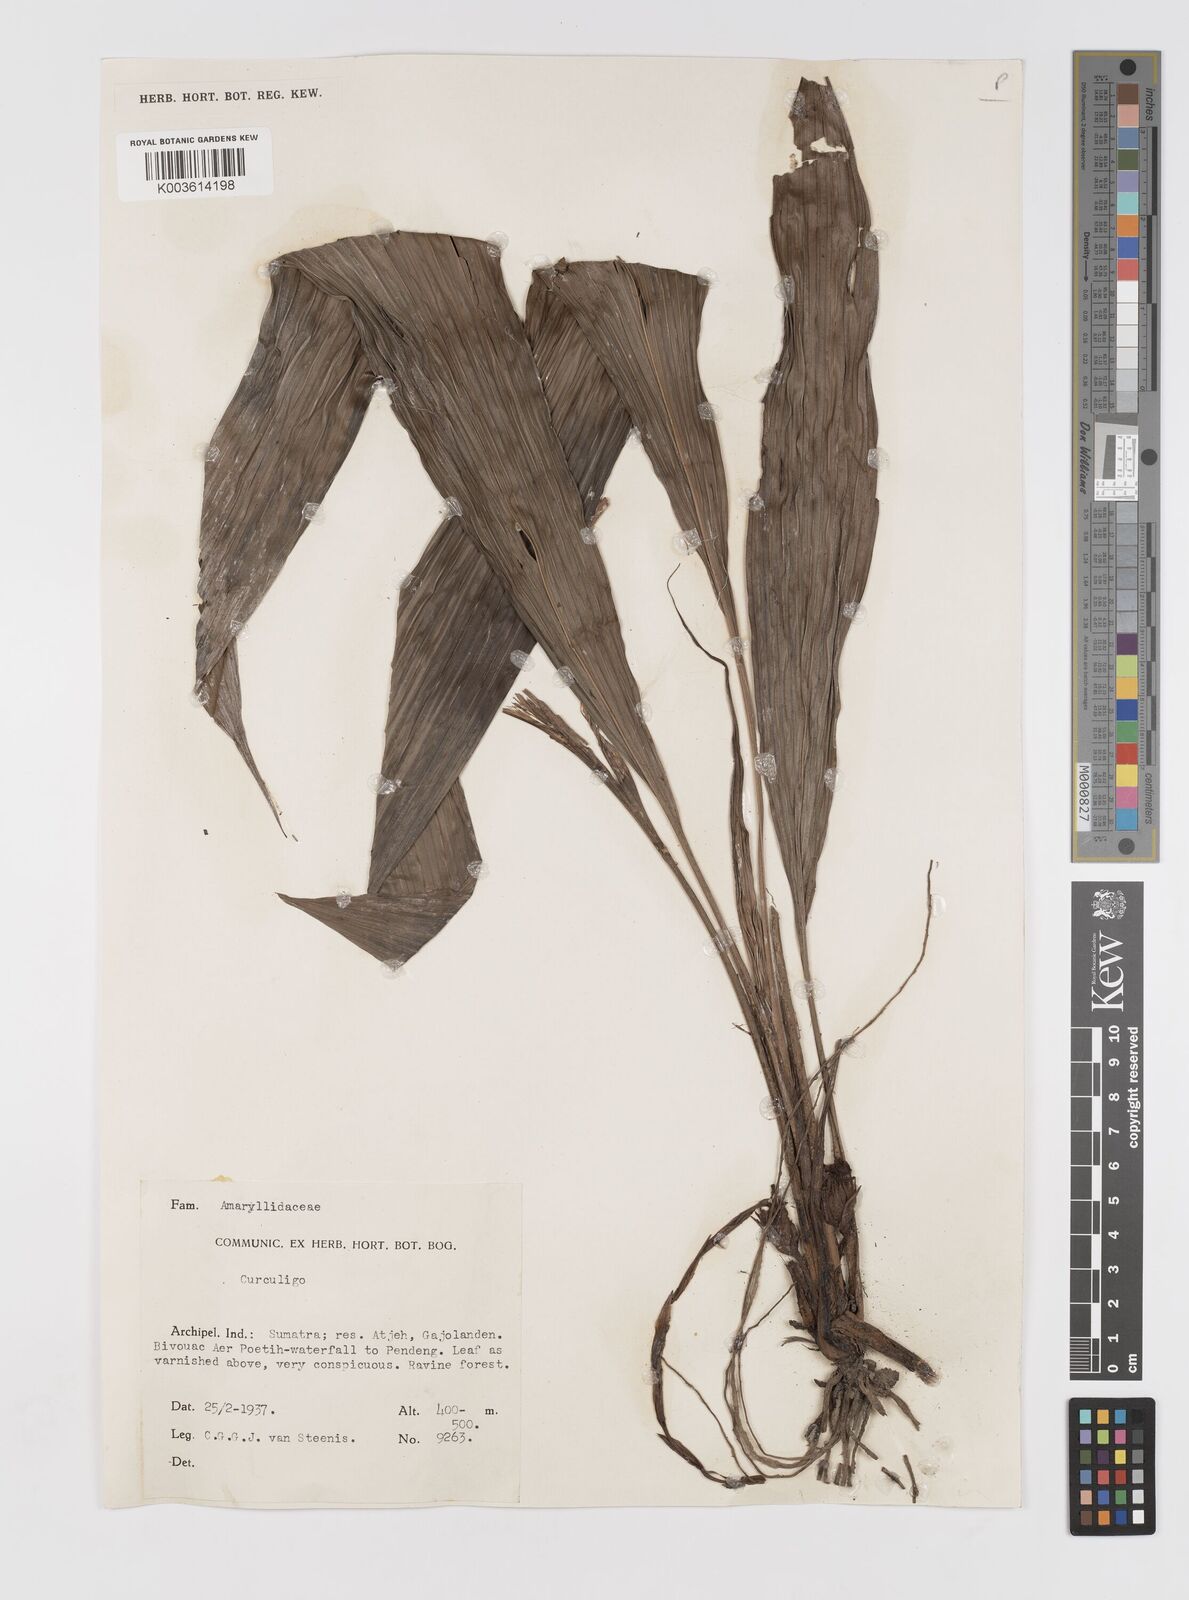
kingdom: Plantae
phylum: Tracheophyta
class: Liliopsida
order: Asparagales
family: Hypoxidaceae
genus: Curculigo
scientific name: Curculigo
